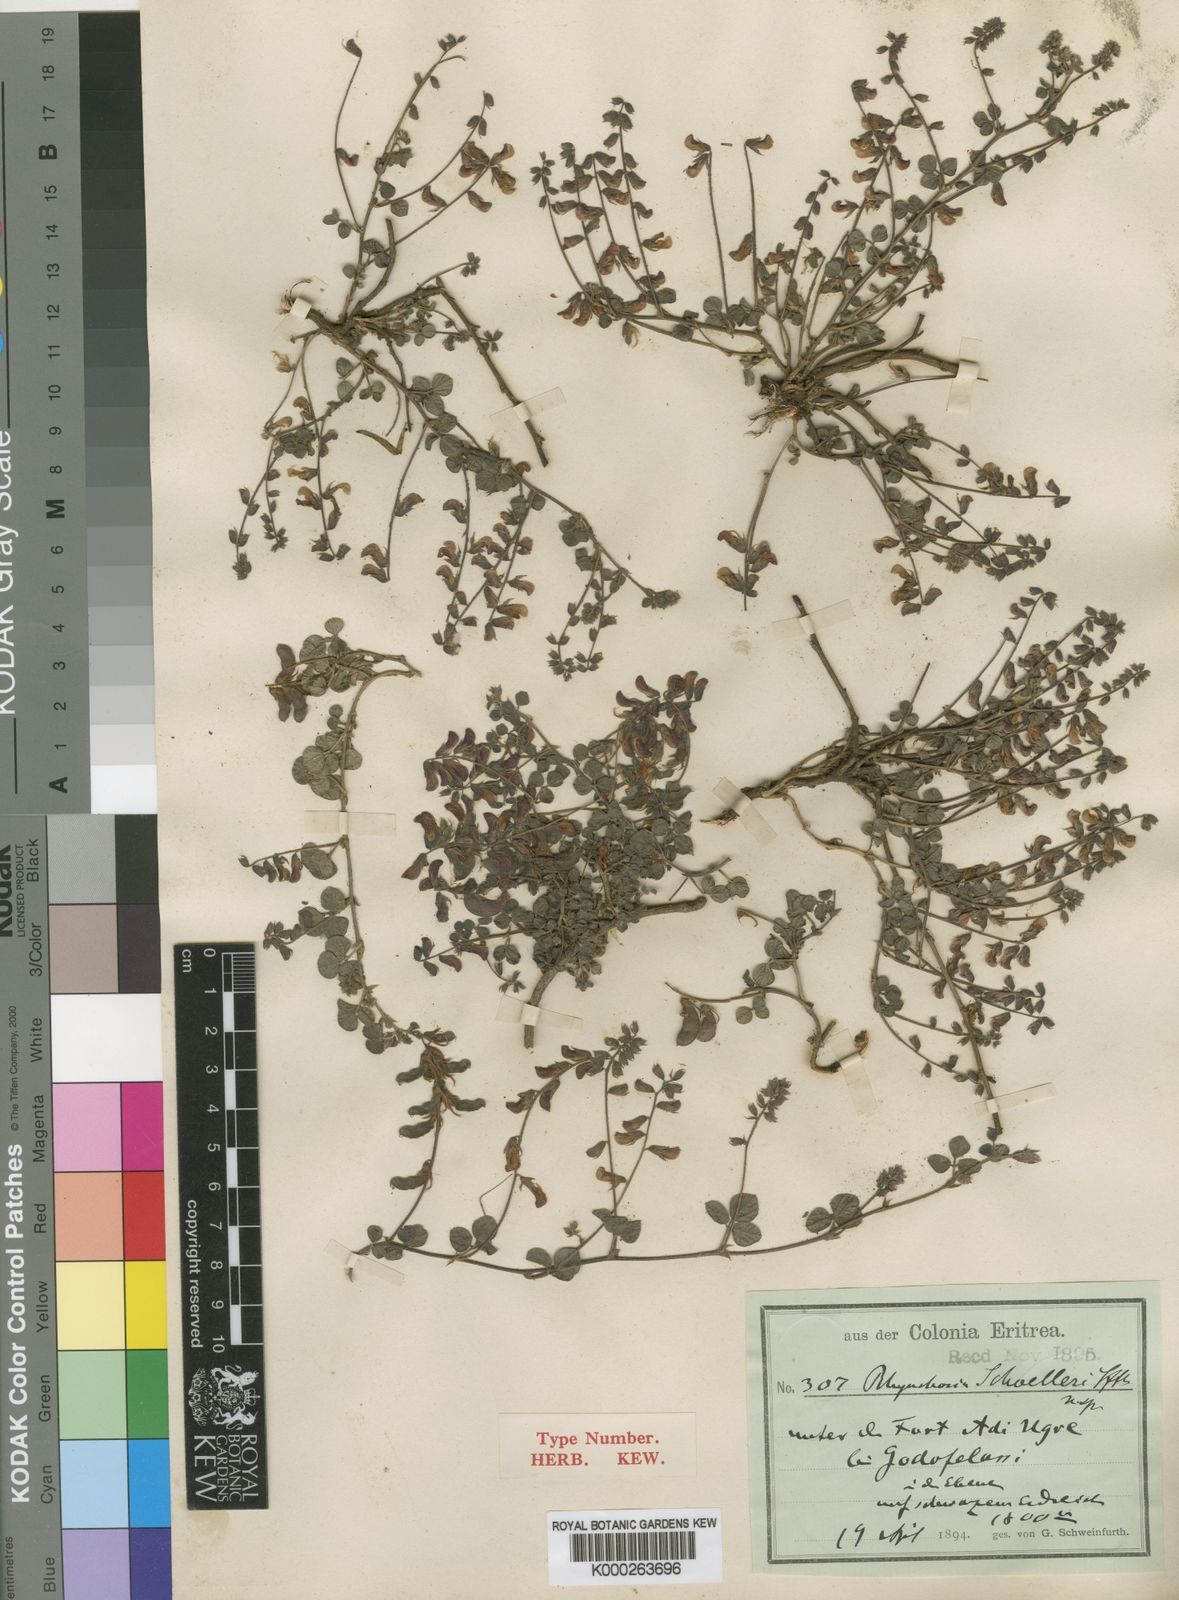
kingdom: Plantae
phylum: Tracheophyta
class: Magnoliopsida
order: Fabales
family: Fabaceae
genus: Rhynchosia
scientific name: Rhynchosia minima
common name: Least snoutbean
